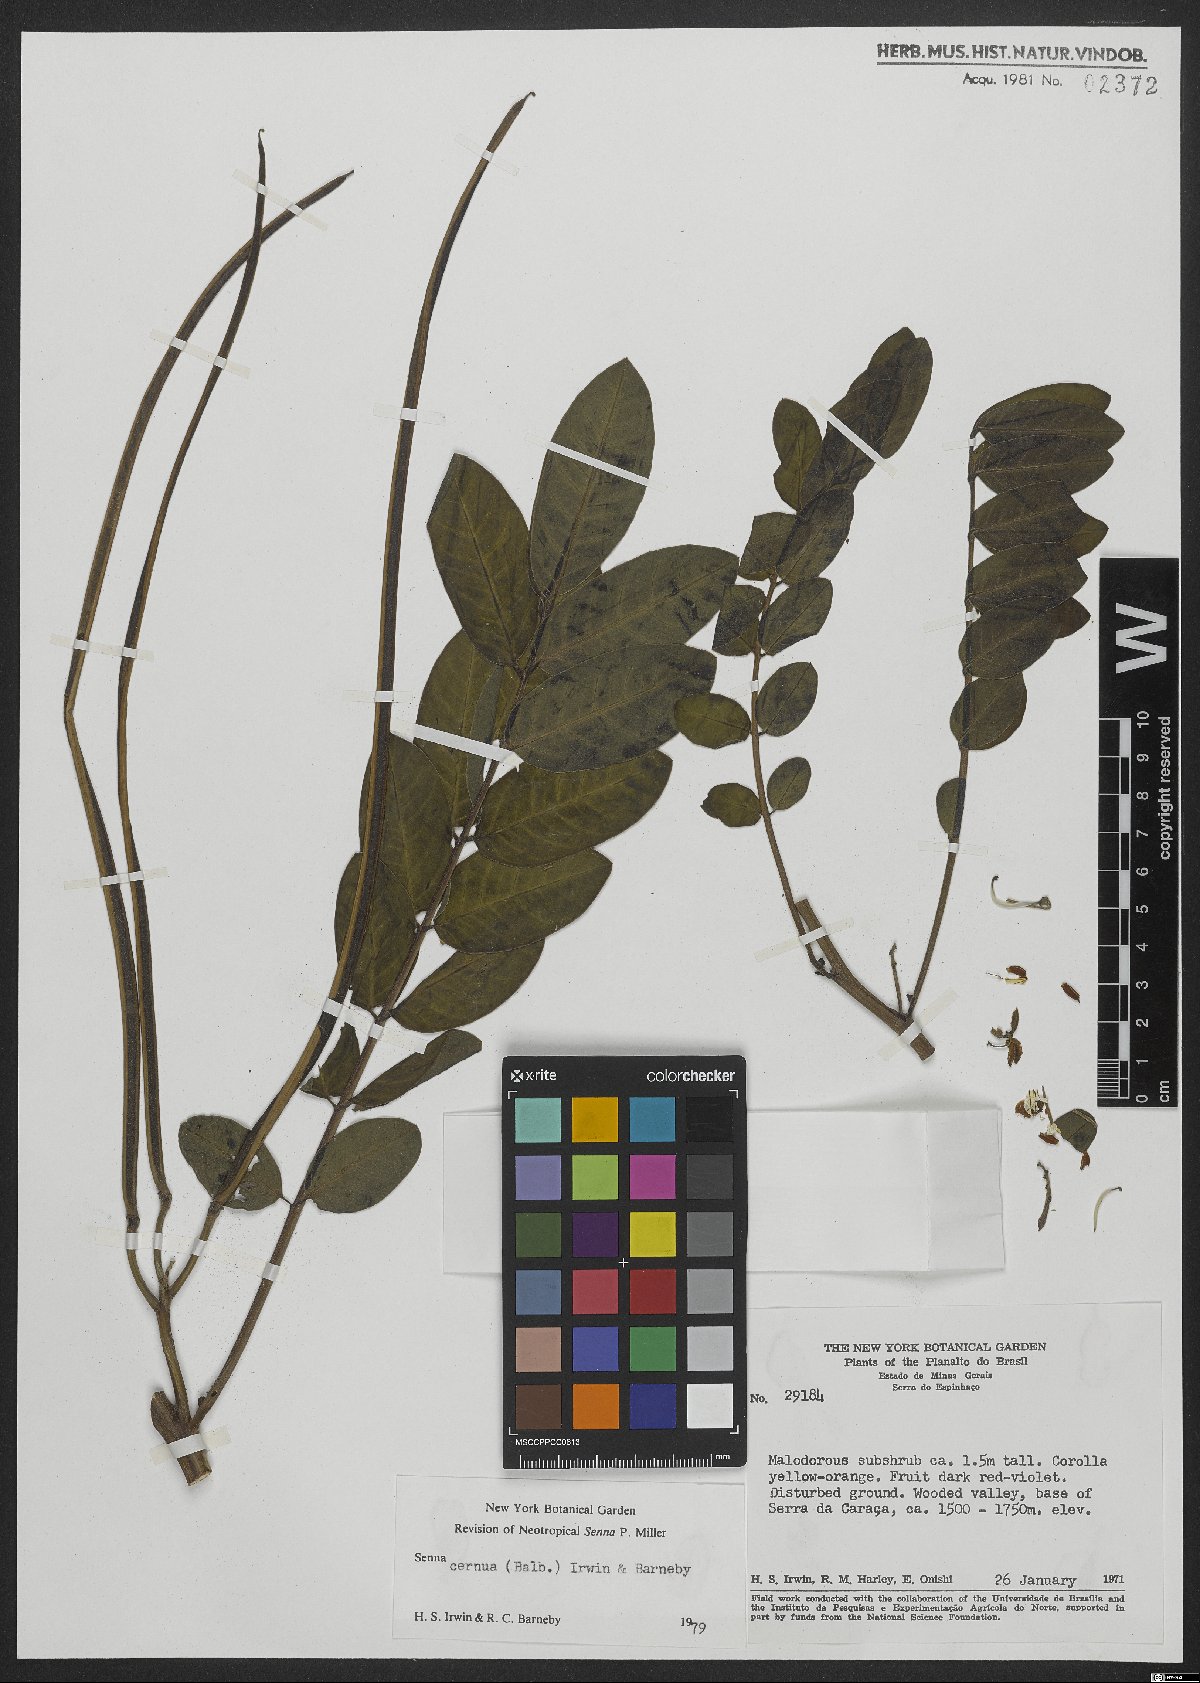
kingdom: Plantae
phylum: Tracheophyta
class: Magnoliopsida
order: Fabales
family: Fabaceae
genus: Senna
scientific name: Senna cernua
